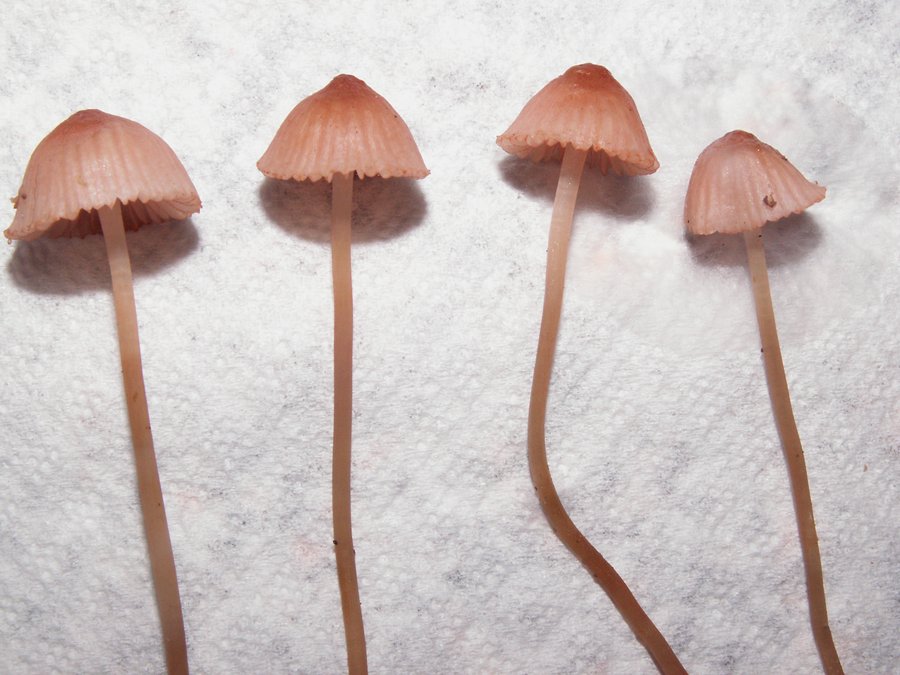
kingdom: Fungi
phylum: Basidiomycota
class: Agaricomycetes
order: Agaricales
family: Mycenaceae
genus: Mycena
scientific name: Mycena rosella
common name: rosenrød huesvamp
